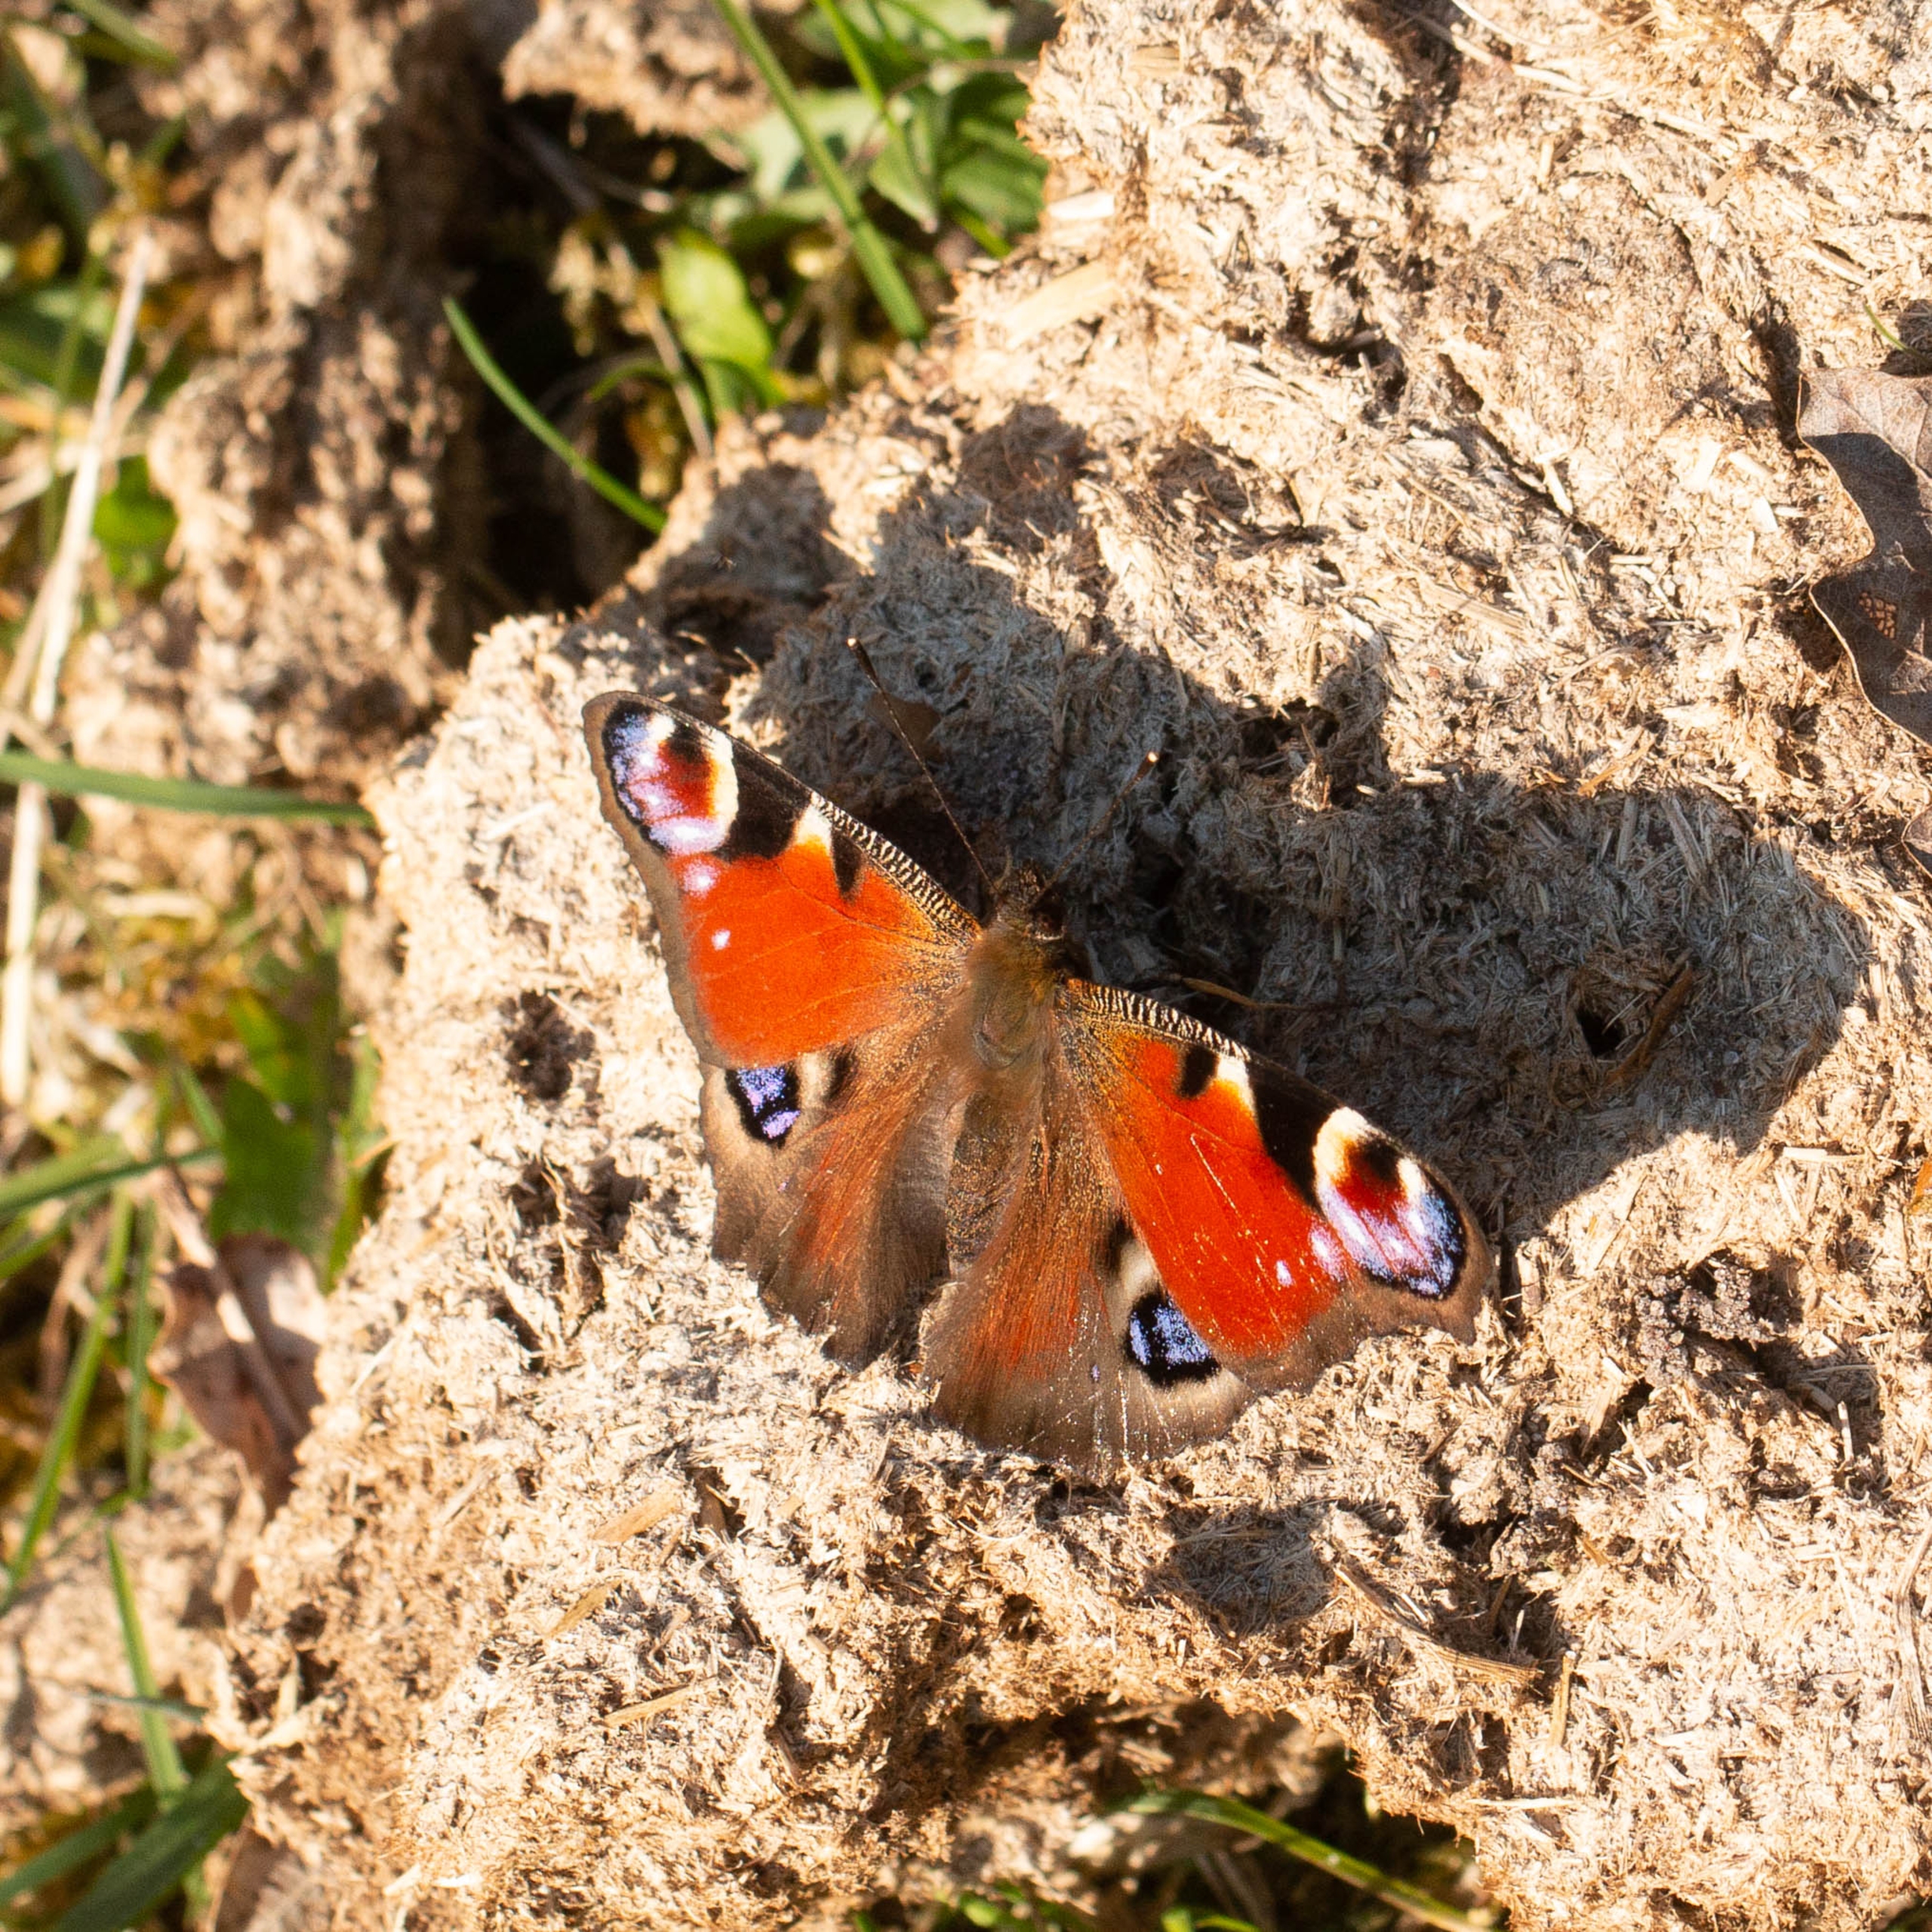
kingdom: Animalia
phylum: Arthropoda
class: Insecta
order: Lepidoptera
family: Nymphalidae
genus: Aglais
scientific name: Aglais io
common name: Dagpåfugleøje
